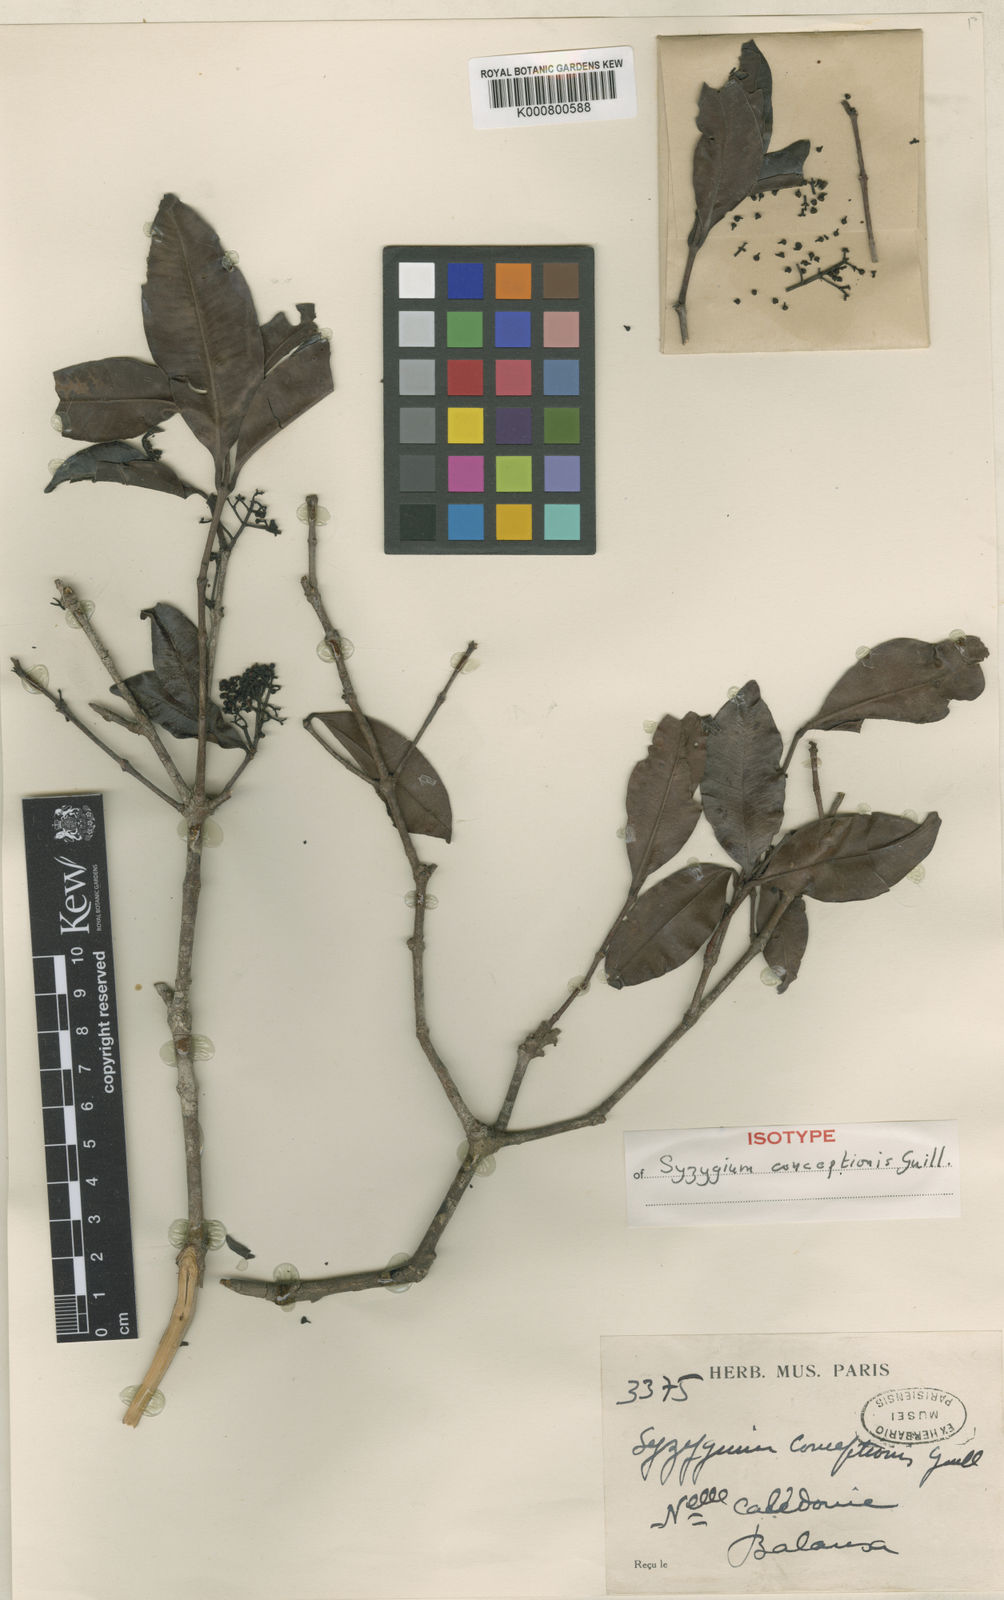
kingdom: Plantae
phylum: Tracheophyta
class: Magnoliopsida
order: Myrtales
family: Myrtaceae
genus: Syzygium
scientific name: Syzygium conceptionis
